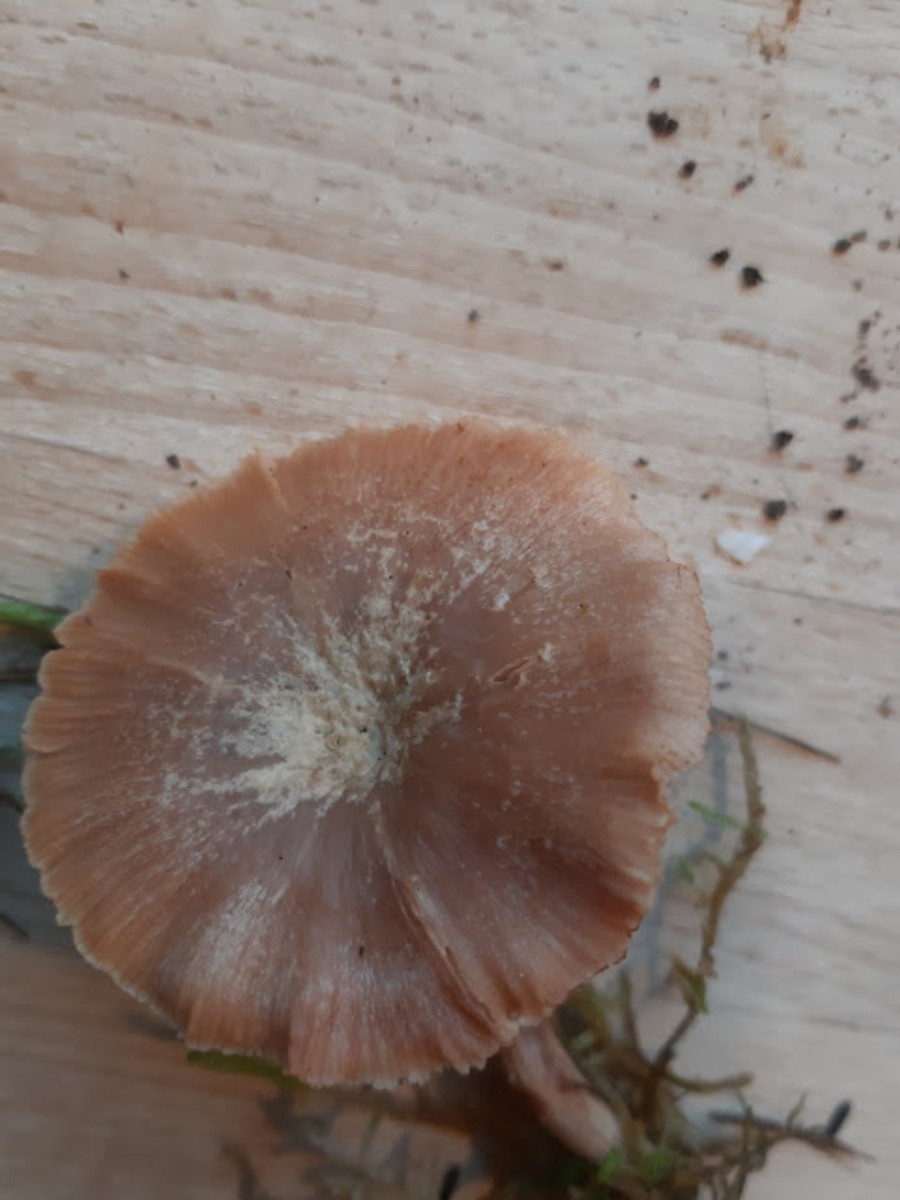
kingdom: Fungi
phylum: Basidiomycota
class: Agaricomycetes
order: Agaricales
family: Hydnangiaceae
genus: Laccaria
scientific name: Laccaria proxima
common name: stor ametysthat
